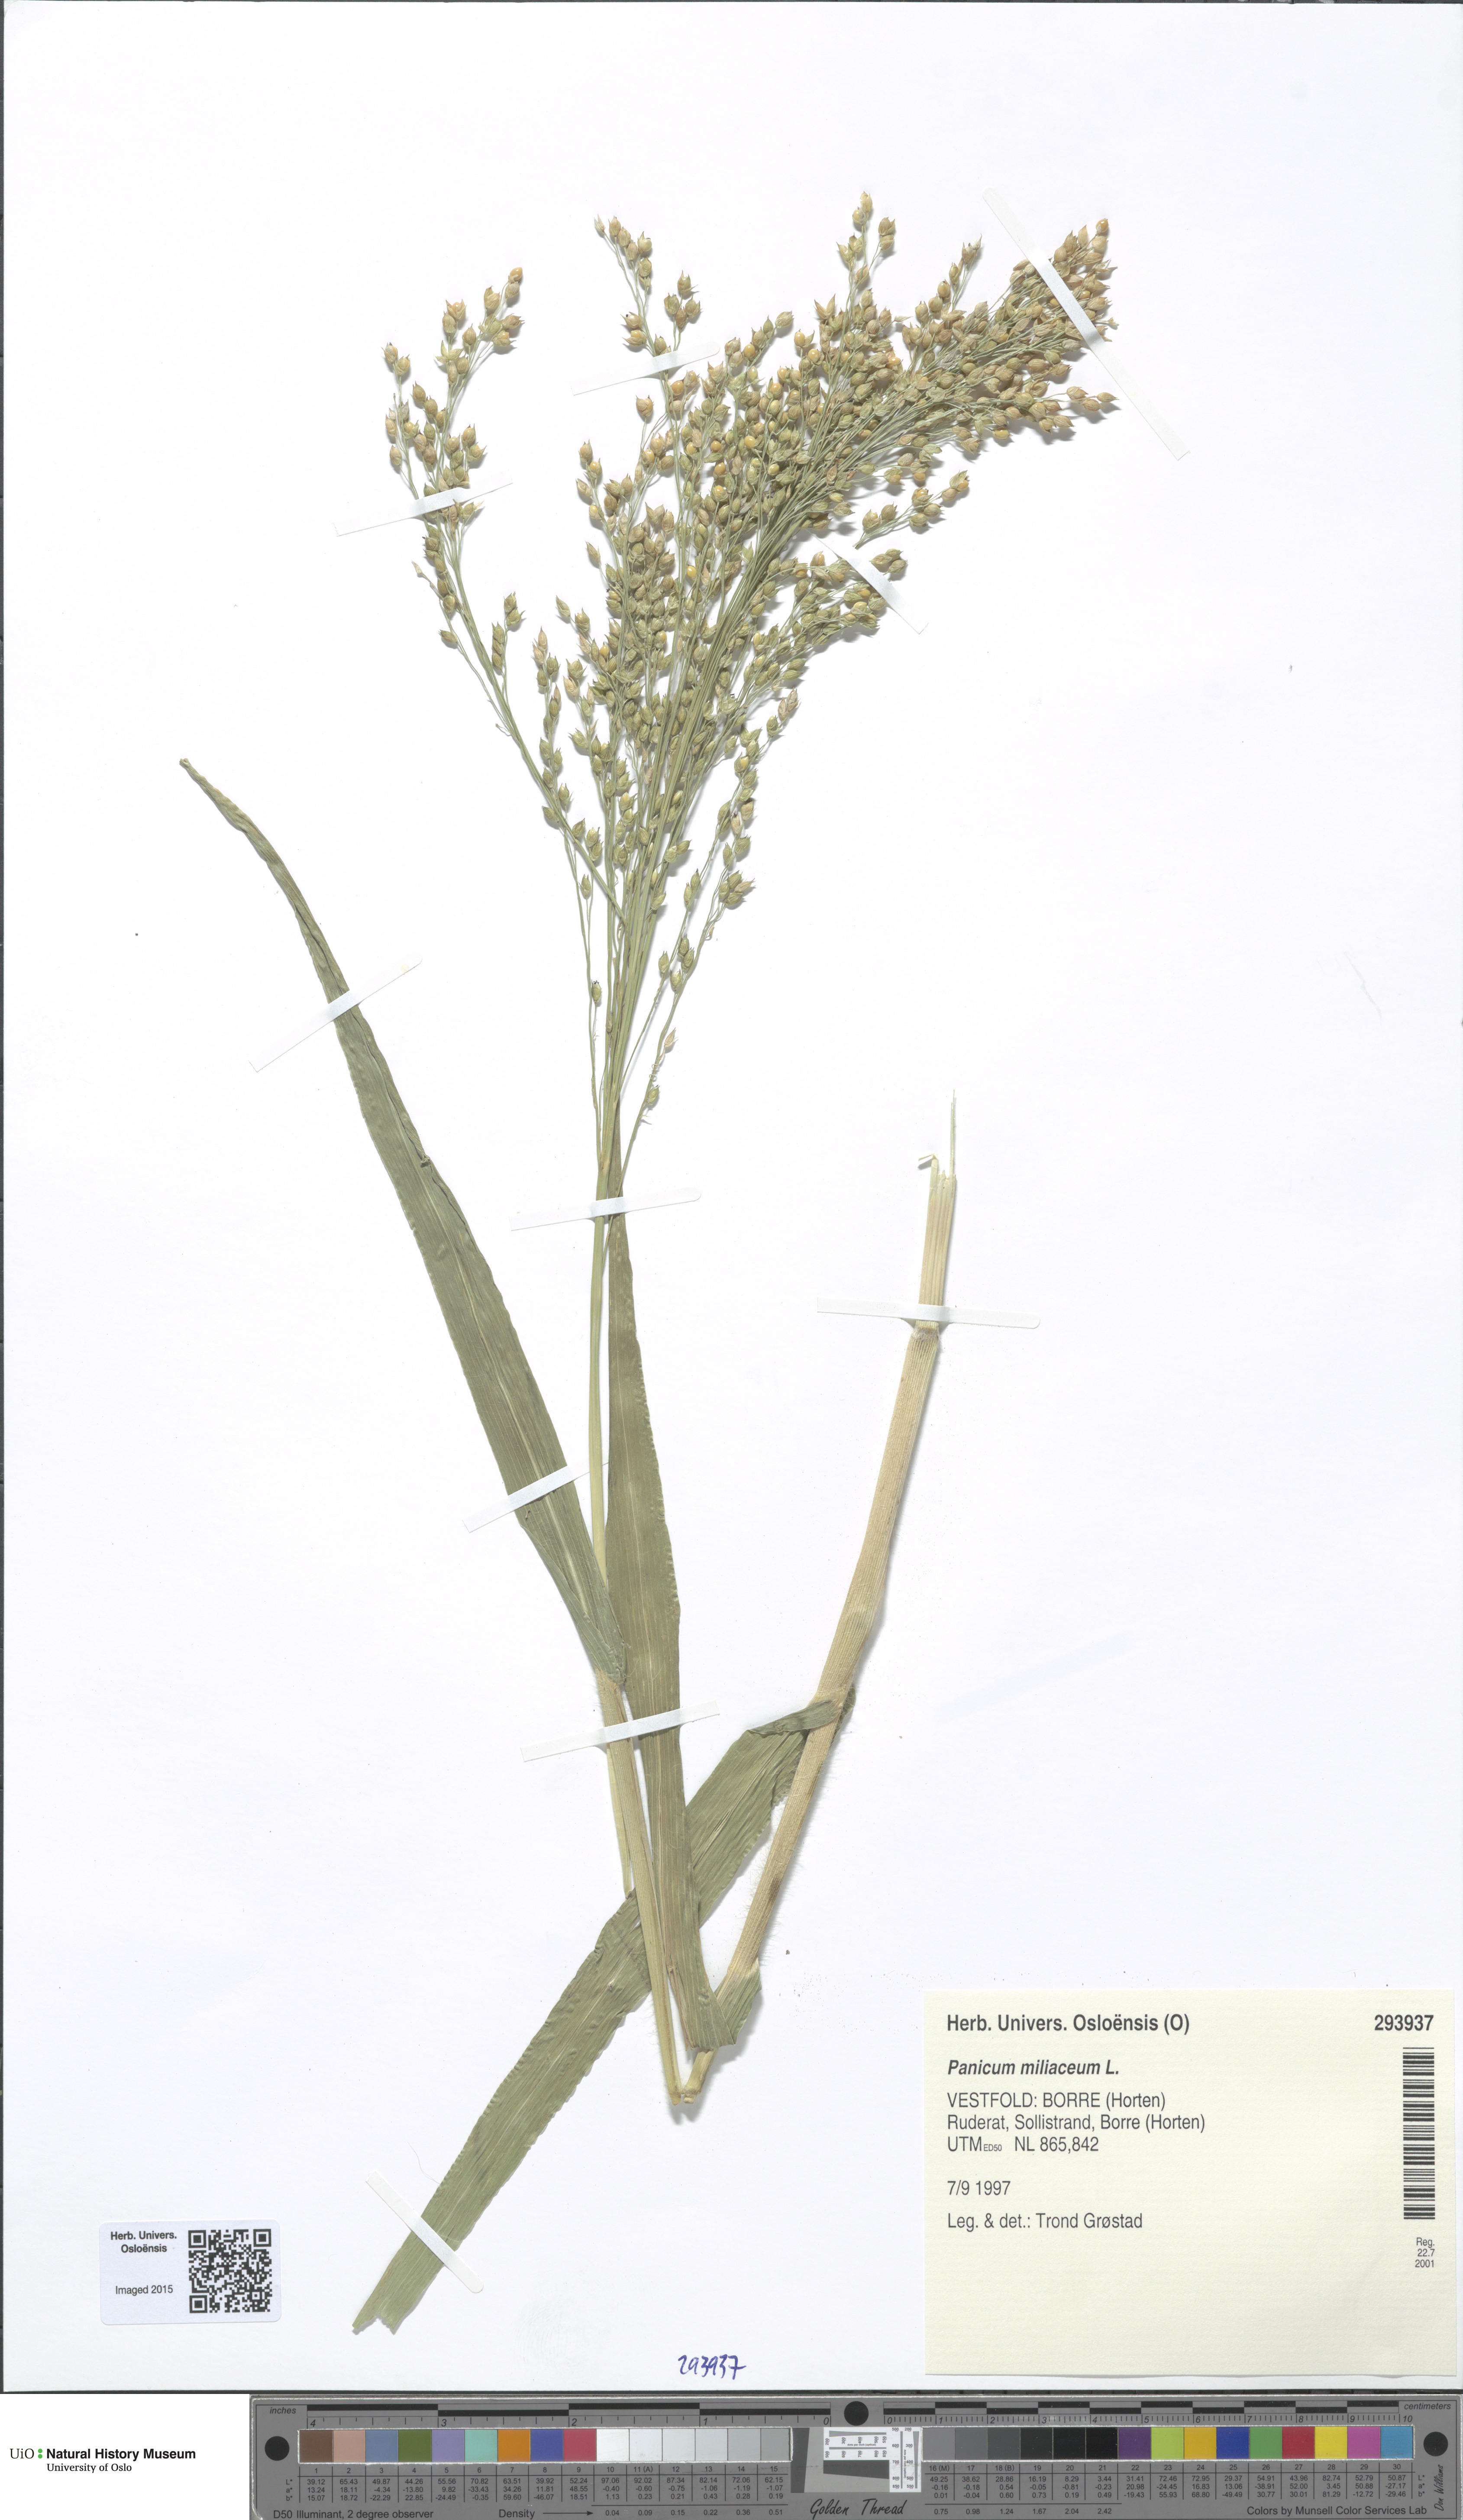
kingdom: Plantae
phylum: Tracheophyta
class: Liliopsida
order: Poales
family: Poaceae
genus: Panicum
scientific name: Panicum miliaceum
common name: Common millet
